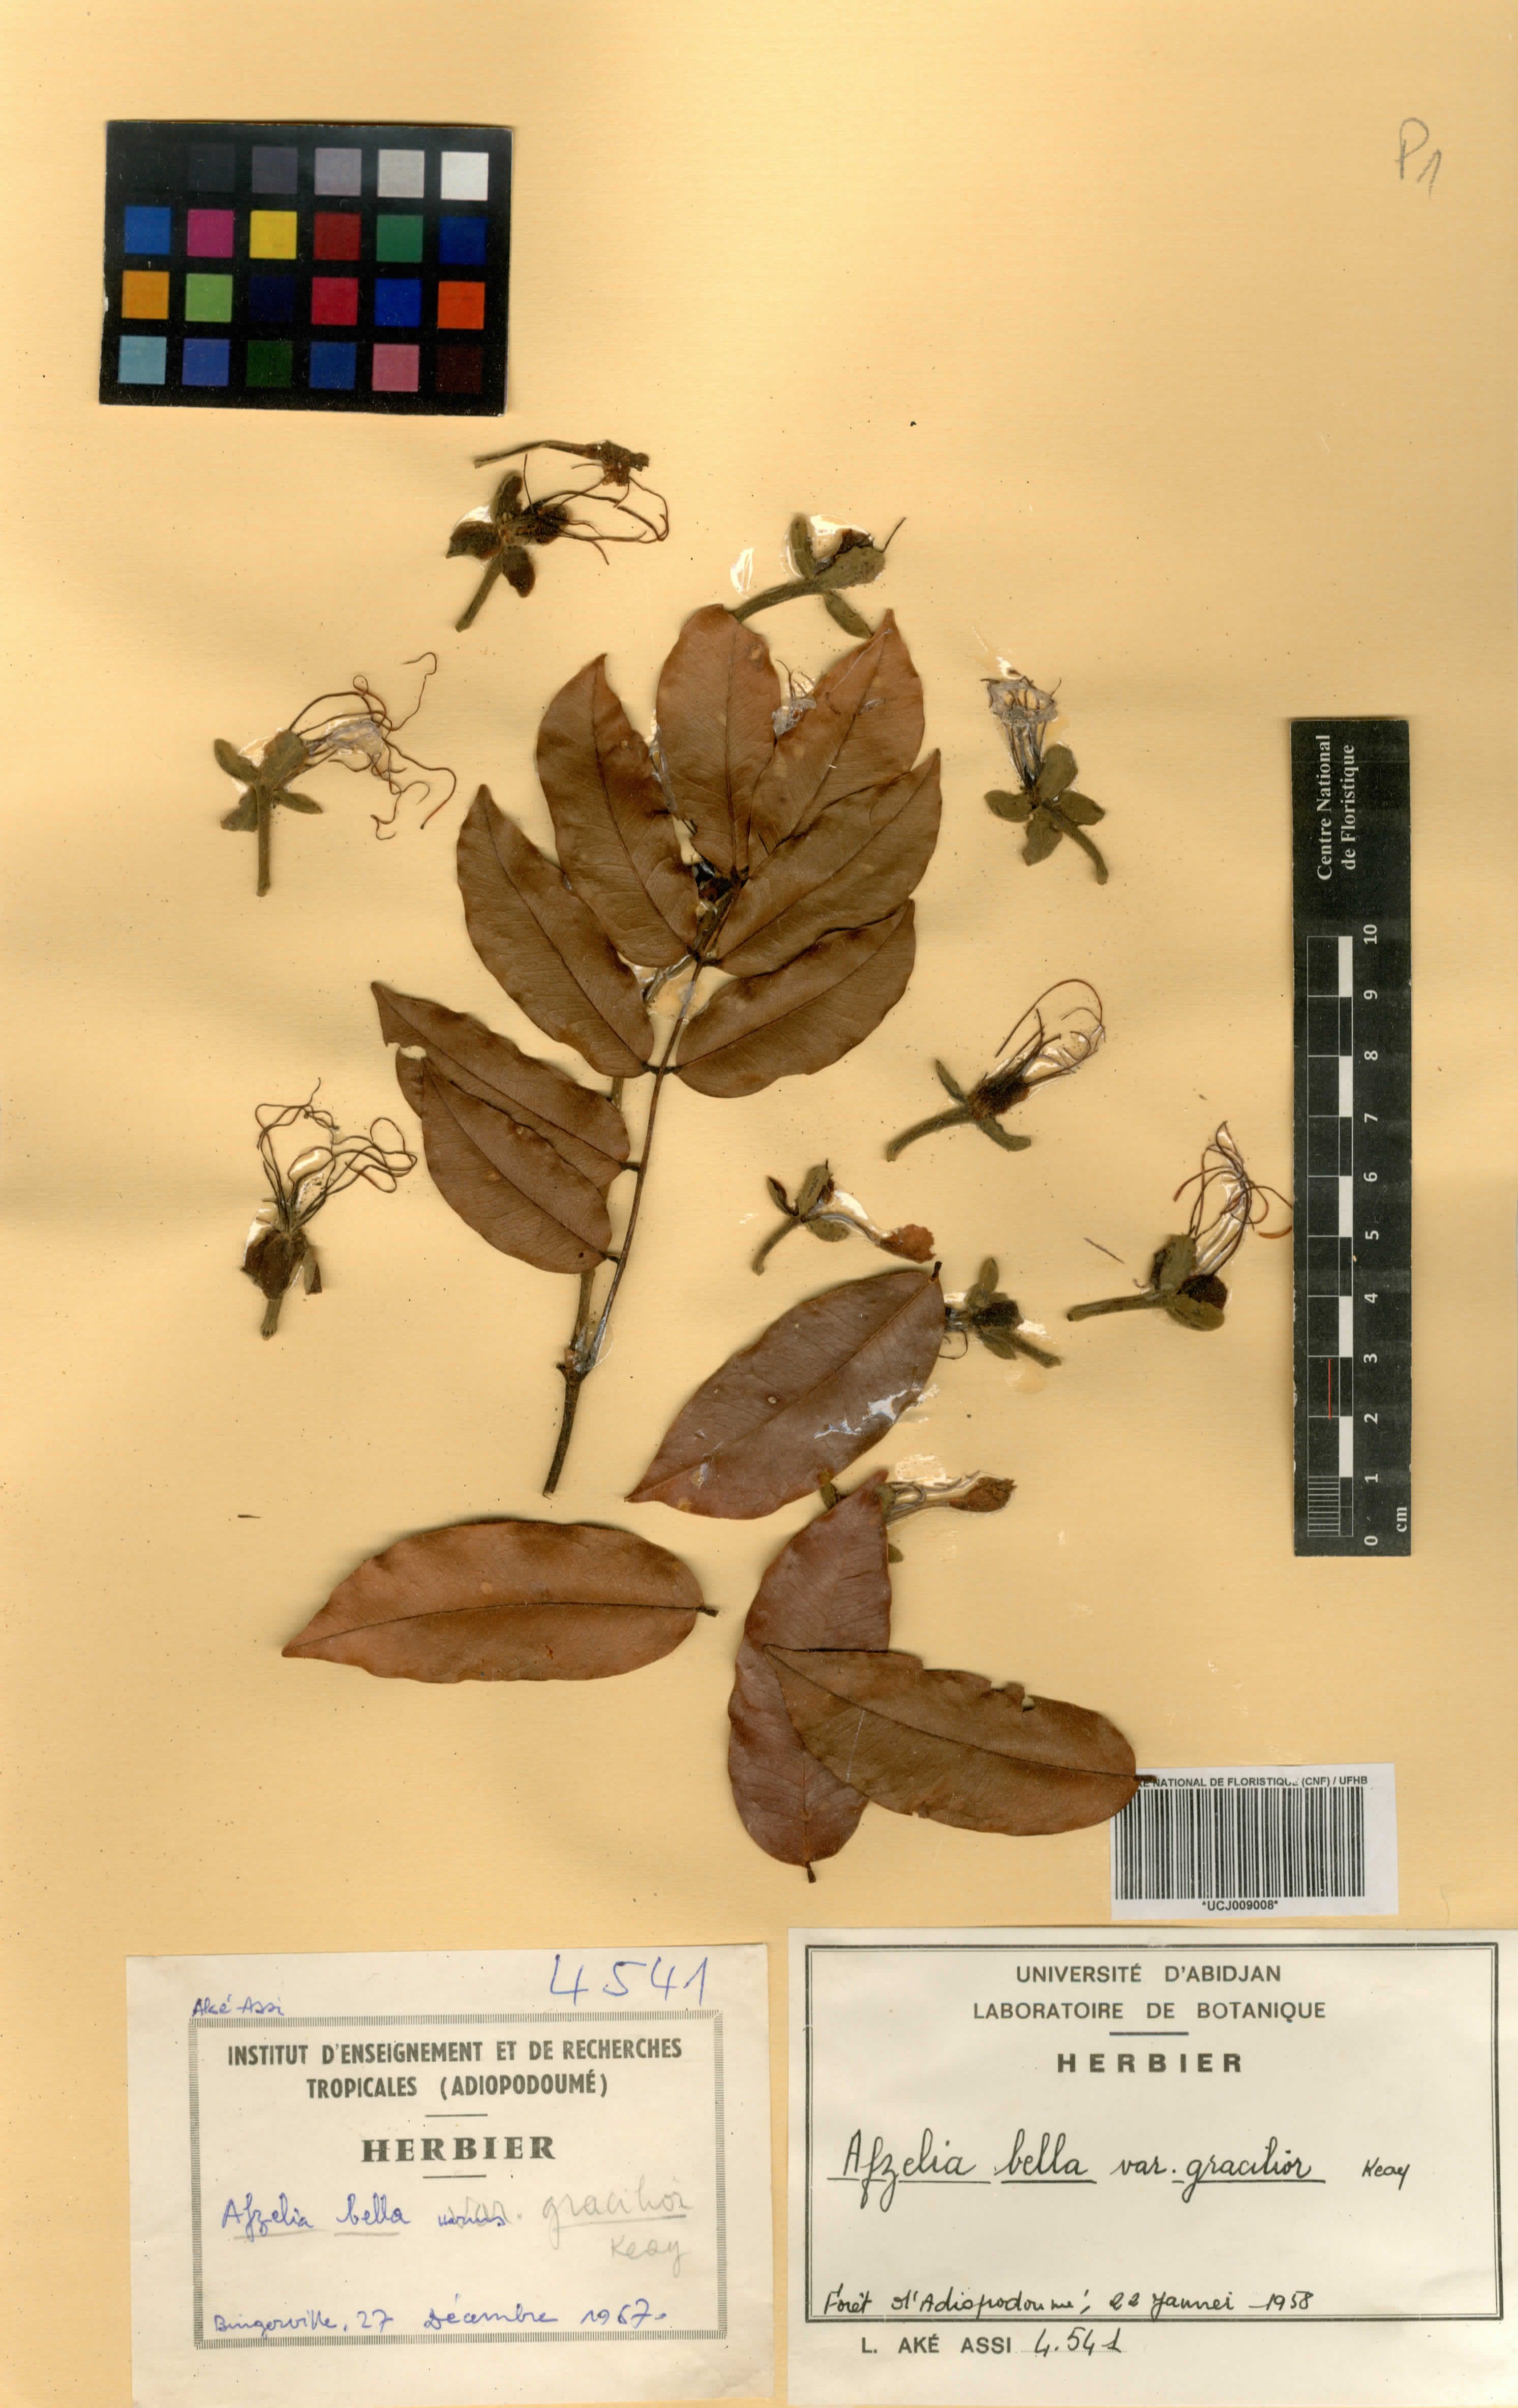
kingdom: Plantae
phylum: Tracheophyta
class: Magnoliopsida
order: Fabales
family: Fabaceae
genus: Afzelia
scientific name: Afzelia bella
